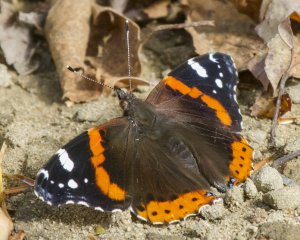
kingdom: Animalia
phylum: Arthropoda
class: Insecta
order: Lepidoptera
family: Nymphalidae
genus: Vanessa
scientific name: Vanessa atalanta
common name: Red Admiral
